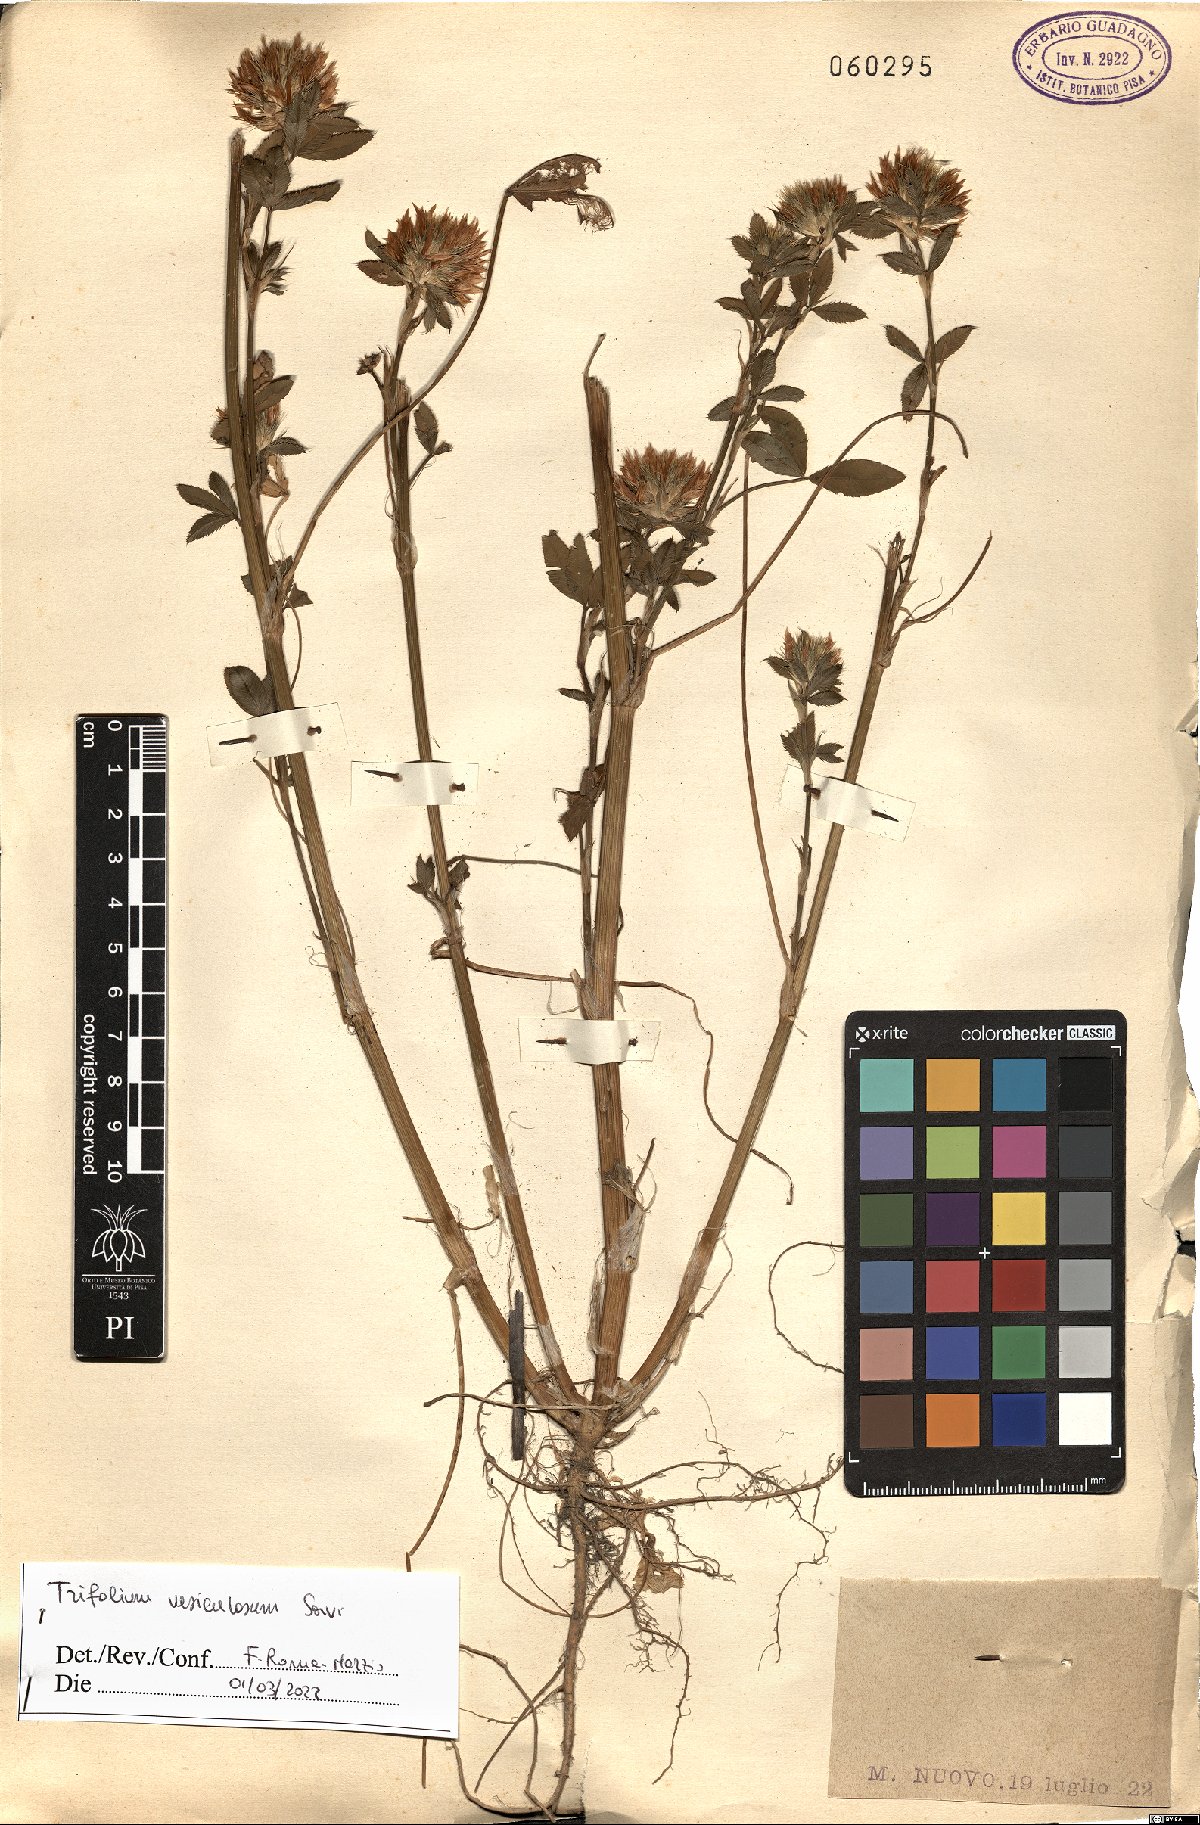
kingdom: Plantae
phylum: Tracheophyta
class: Magnoliopsida
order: Fabales
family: Fabaceae
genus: Trifolium
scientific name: Trifolium vesiculosum
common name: Arrowleaf clover
